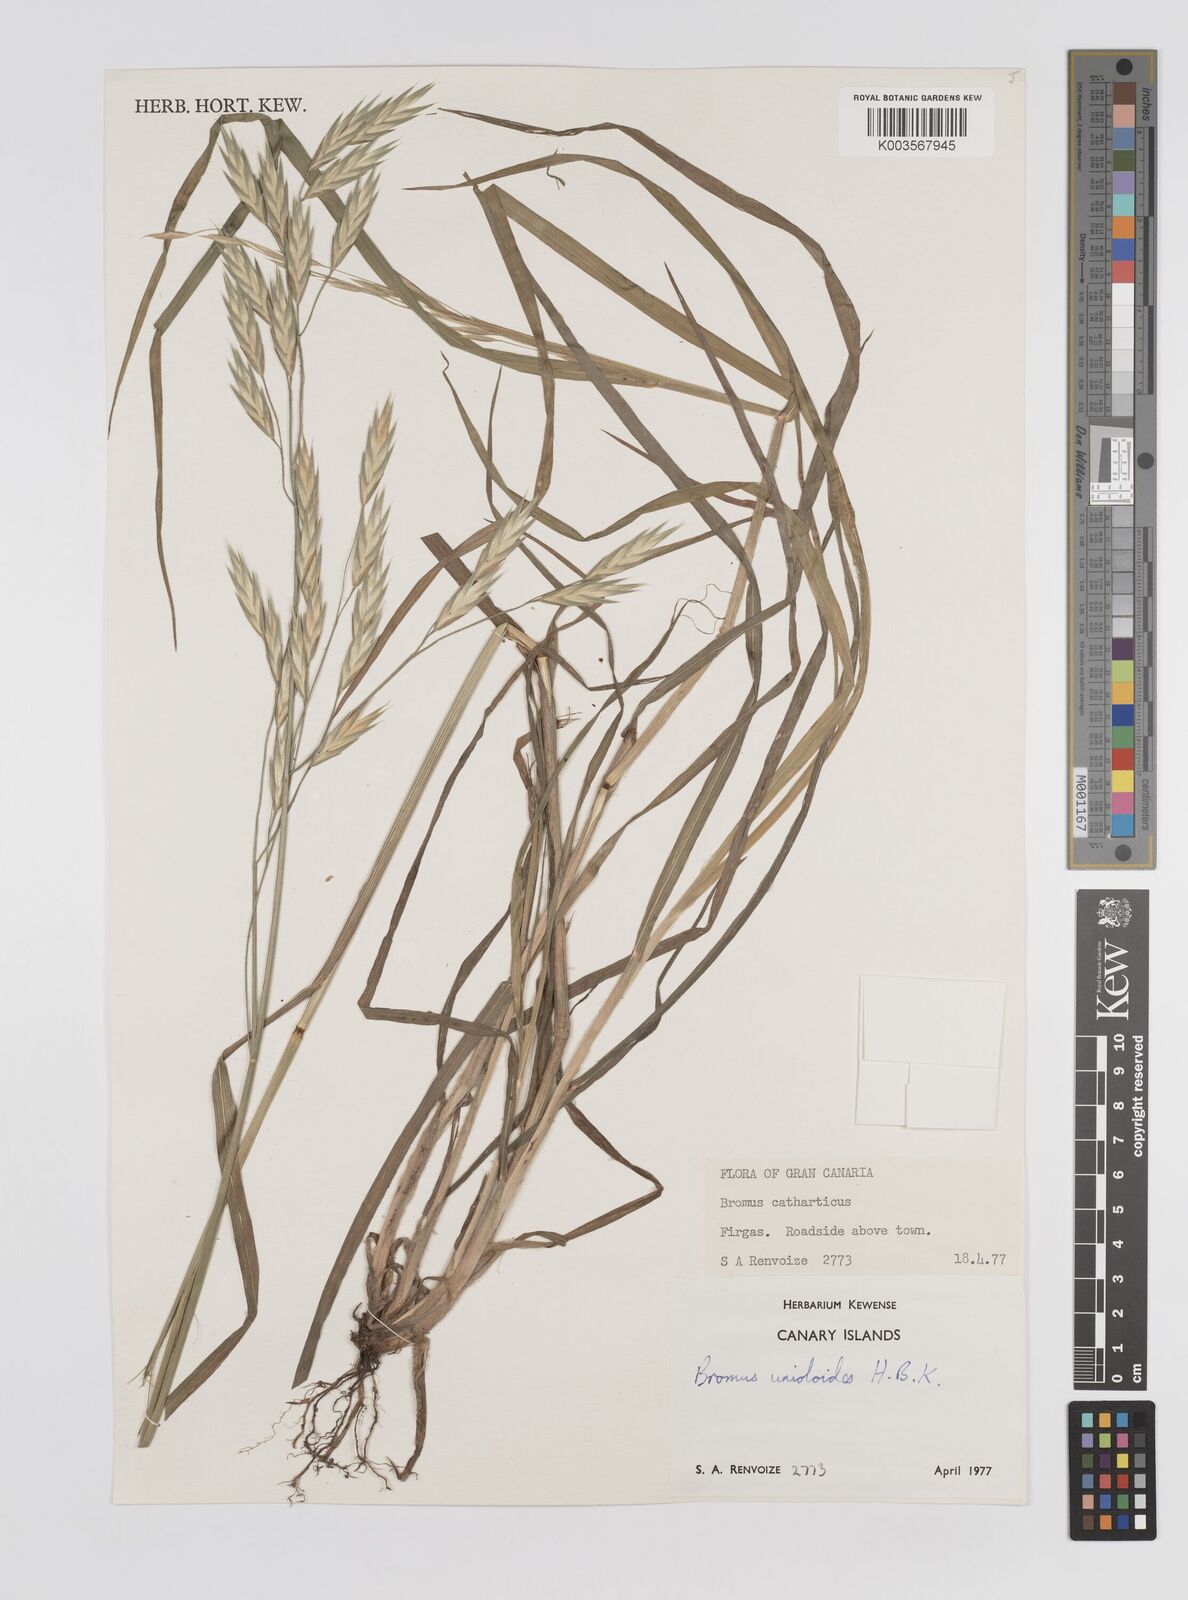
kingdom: Plantae
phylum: Tracheophyta
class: Liliopsida
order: Poales
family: Poaceae
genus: Bromus
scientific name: Bromus catharticus
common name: Rescuegrass
